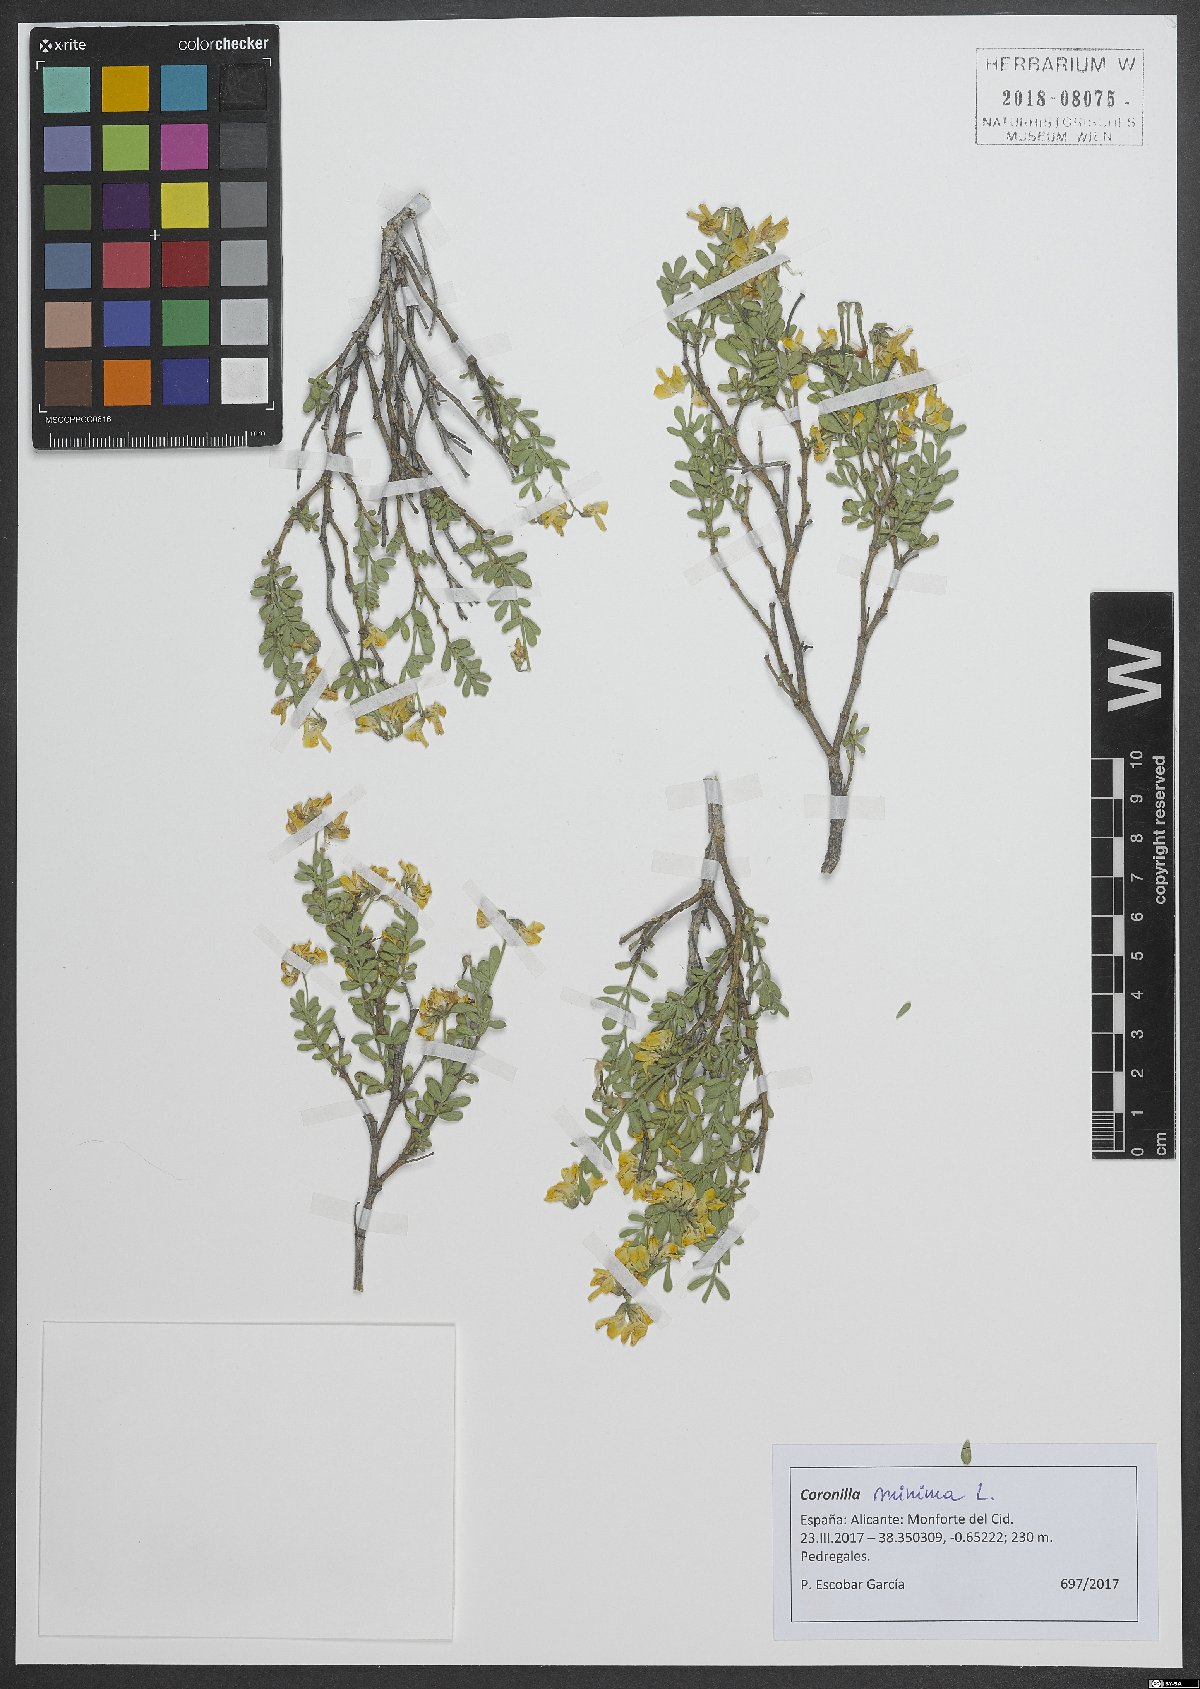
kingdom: Plantae
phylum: Tracheophyta
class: Magnoliopsida
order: Fabales
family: Fabaceae
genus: Coronilla
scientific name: Coronilla minima
